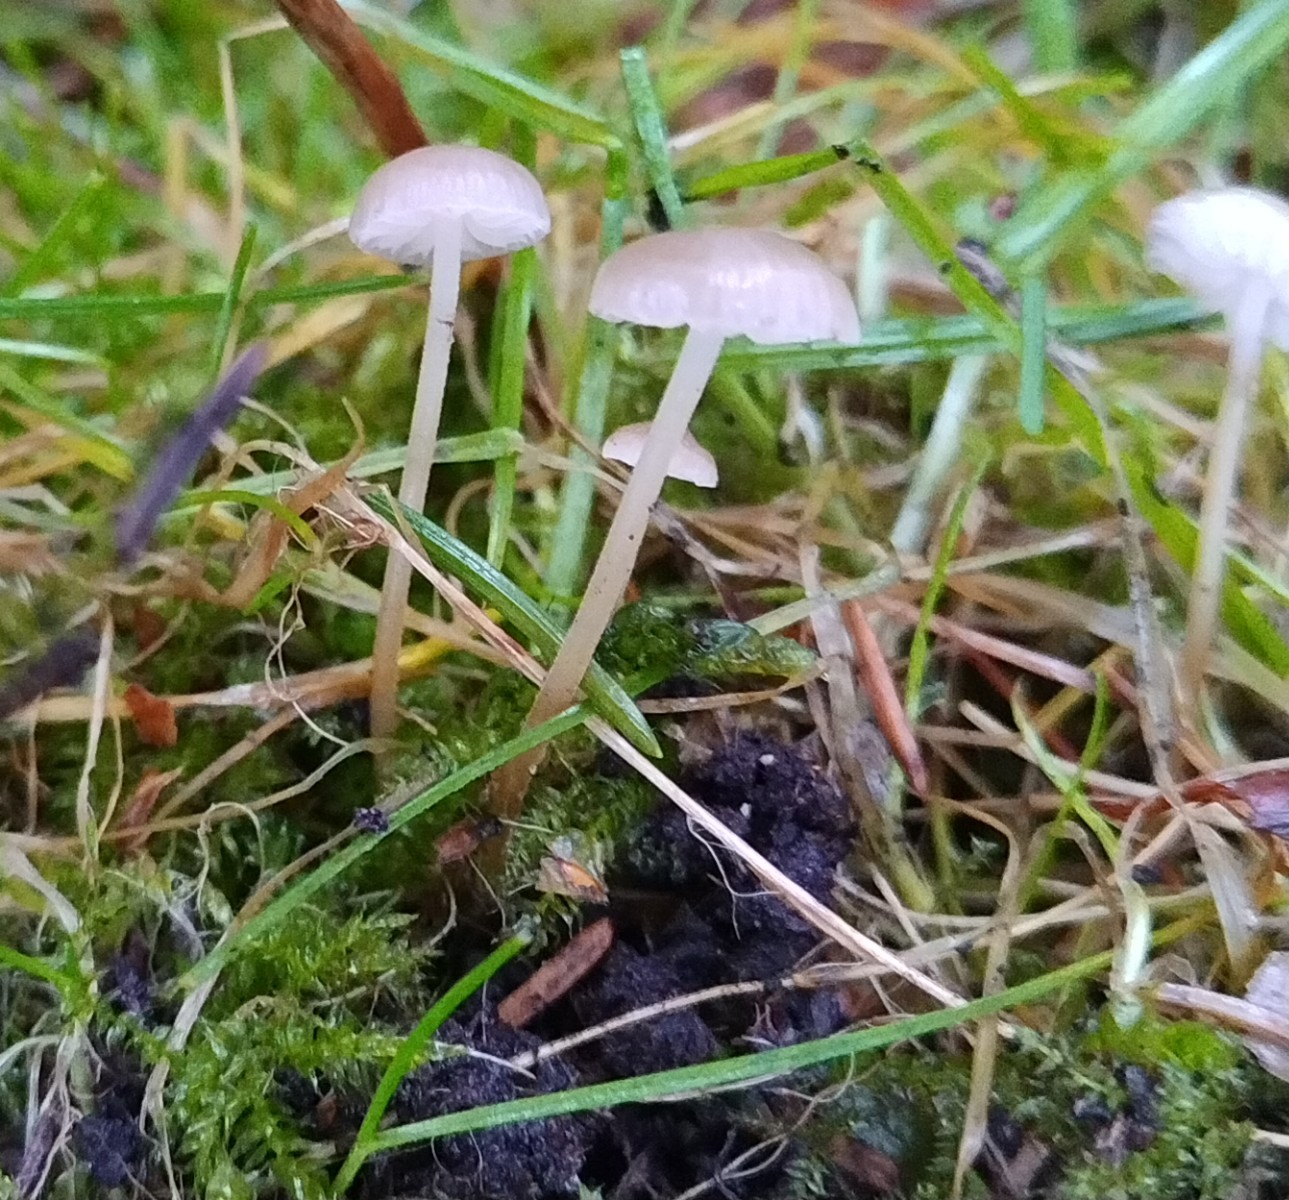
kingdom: Fungi
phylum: Basidiomycota
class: Agaricomycetes
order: Agaricales
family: Physalacriaceae
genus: Strobilurus
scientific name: Strobilurus esculentus
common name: gran-koglehat
